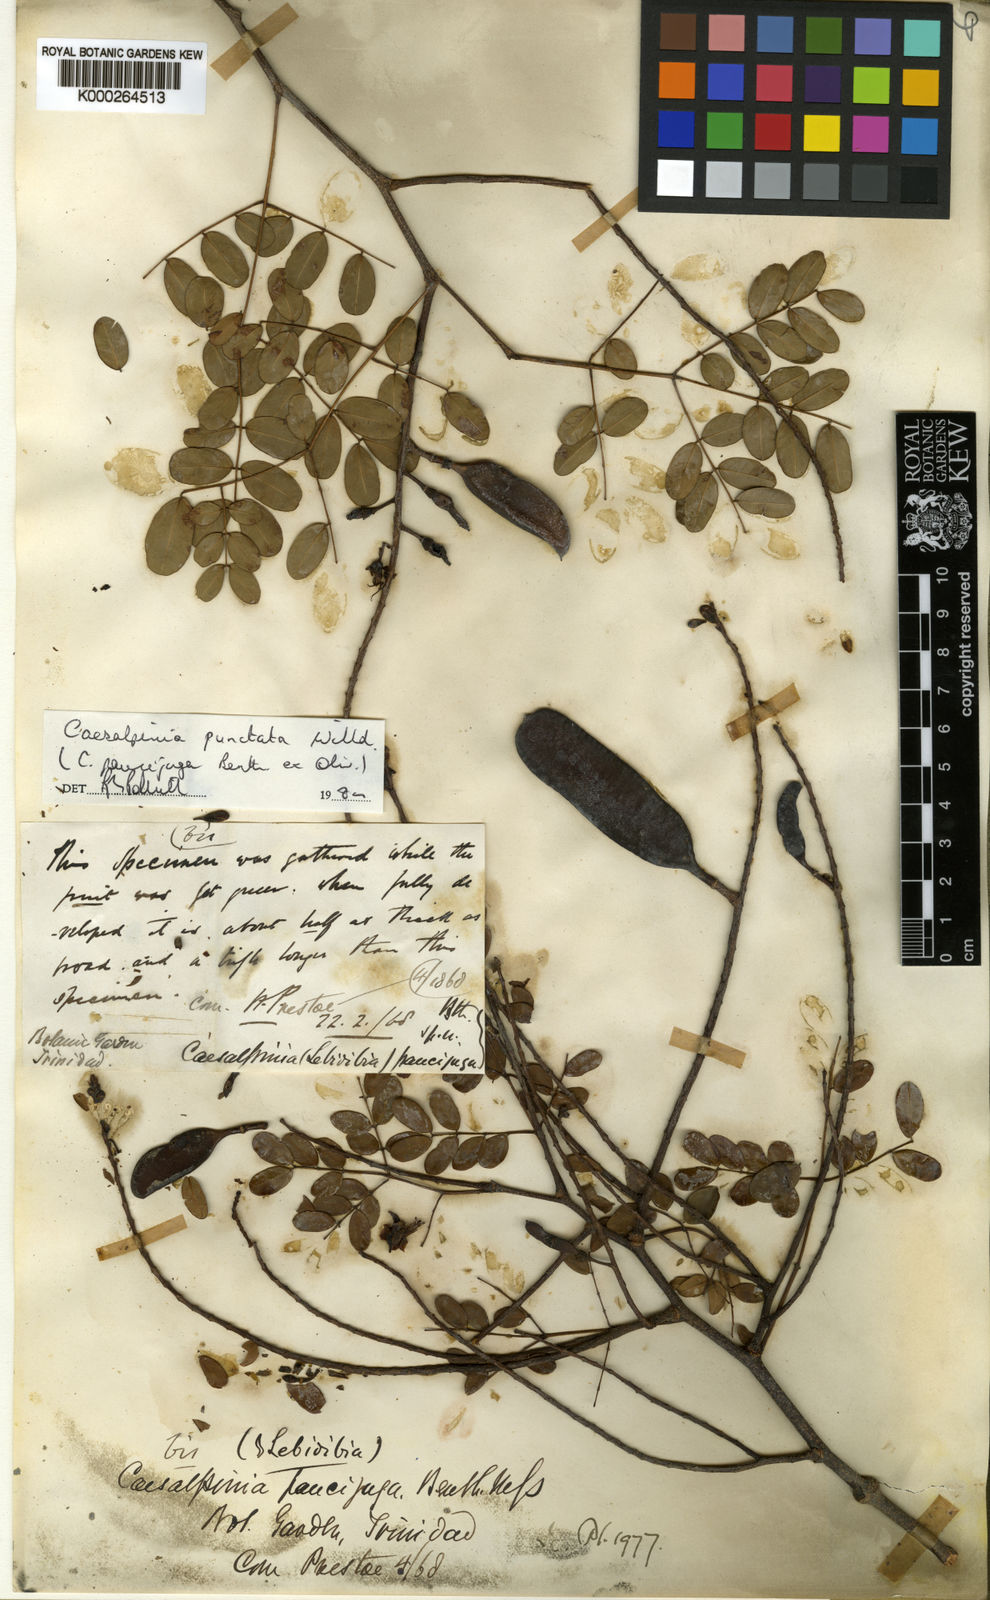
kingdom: Plantae
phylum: Tracheophyta
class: Magnoliopsida
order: Fabales
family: Fabaceae
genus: Libidibia
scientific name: Libidibia punctata
